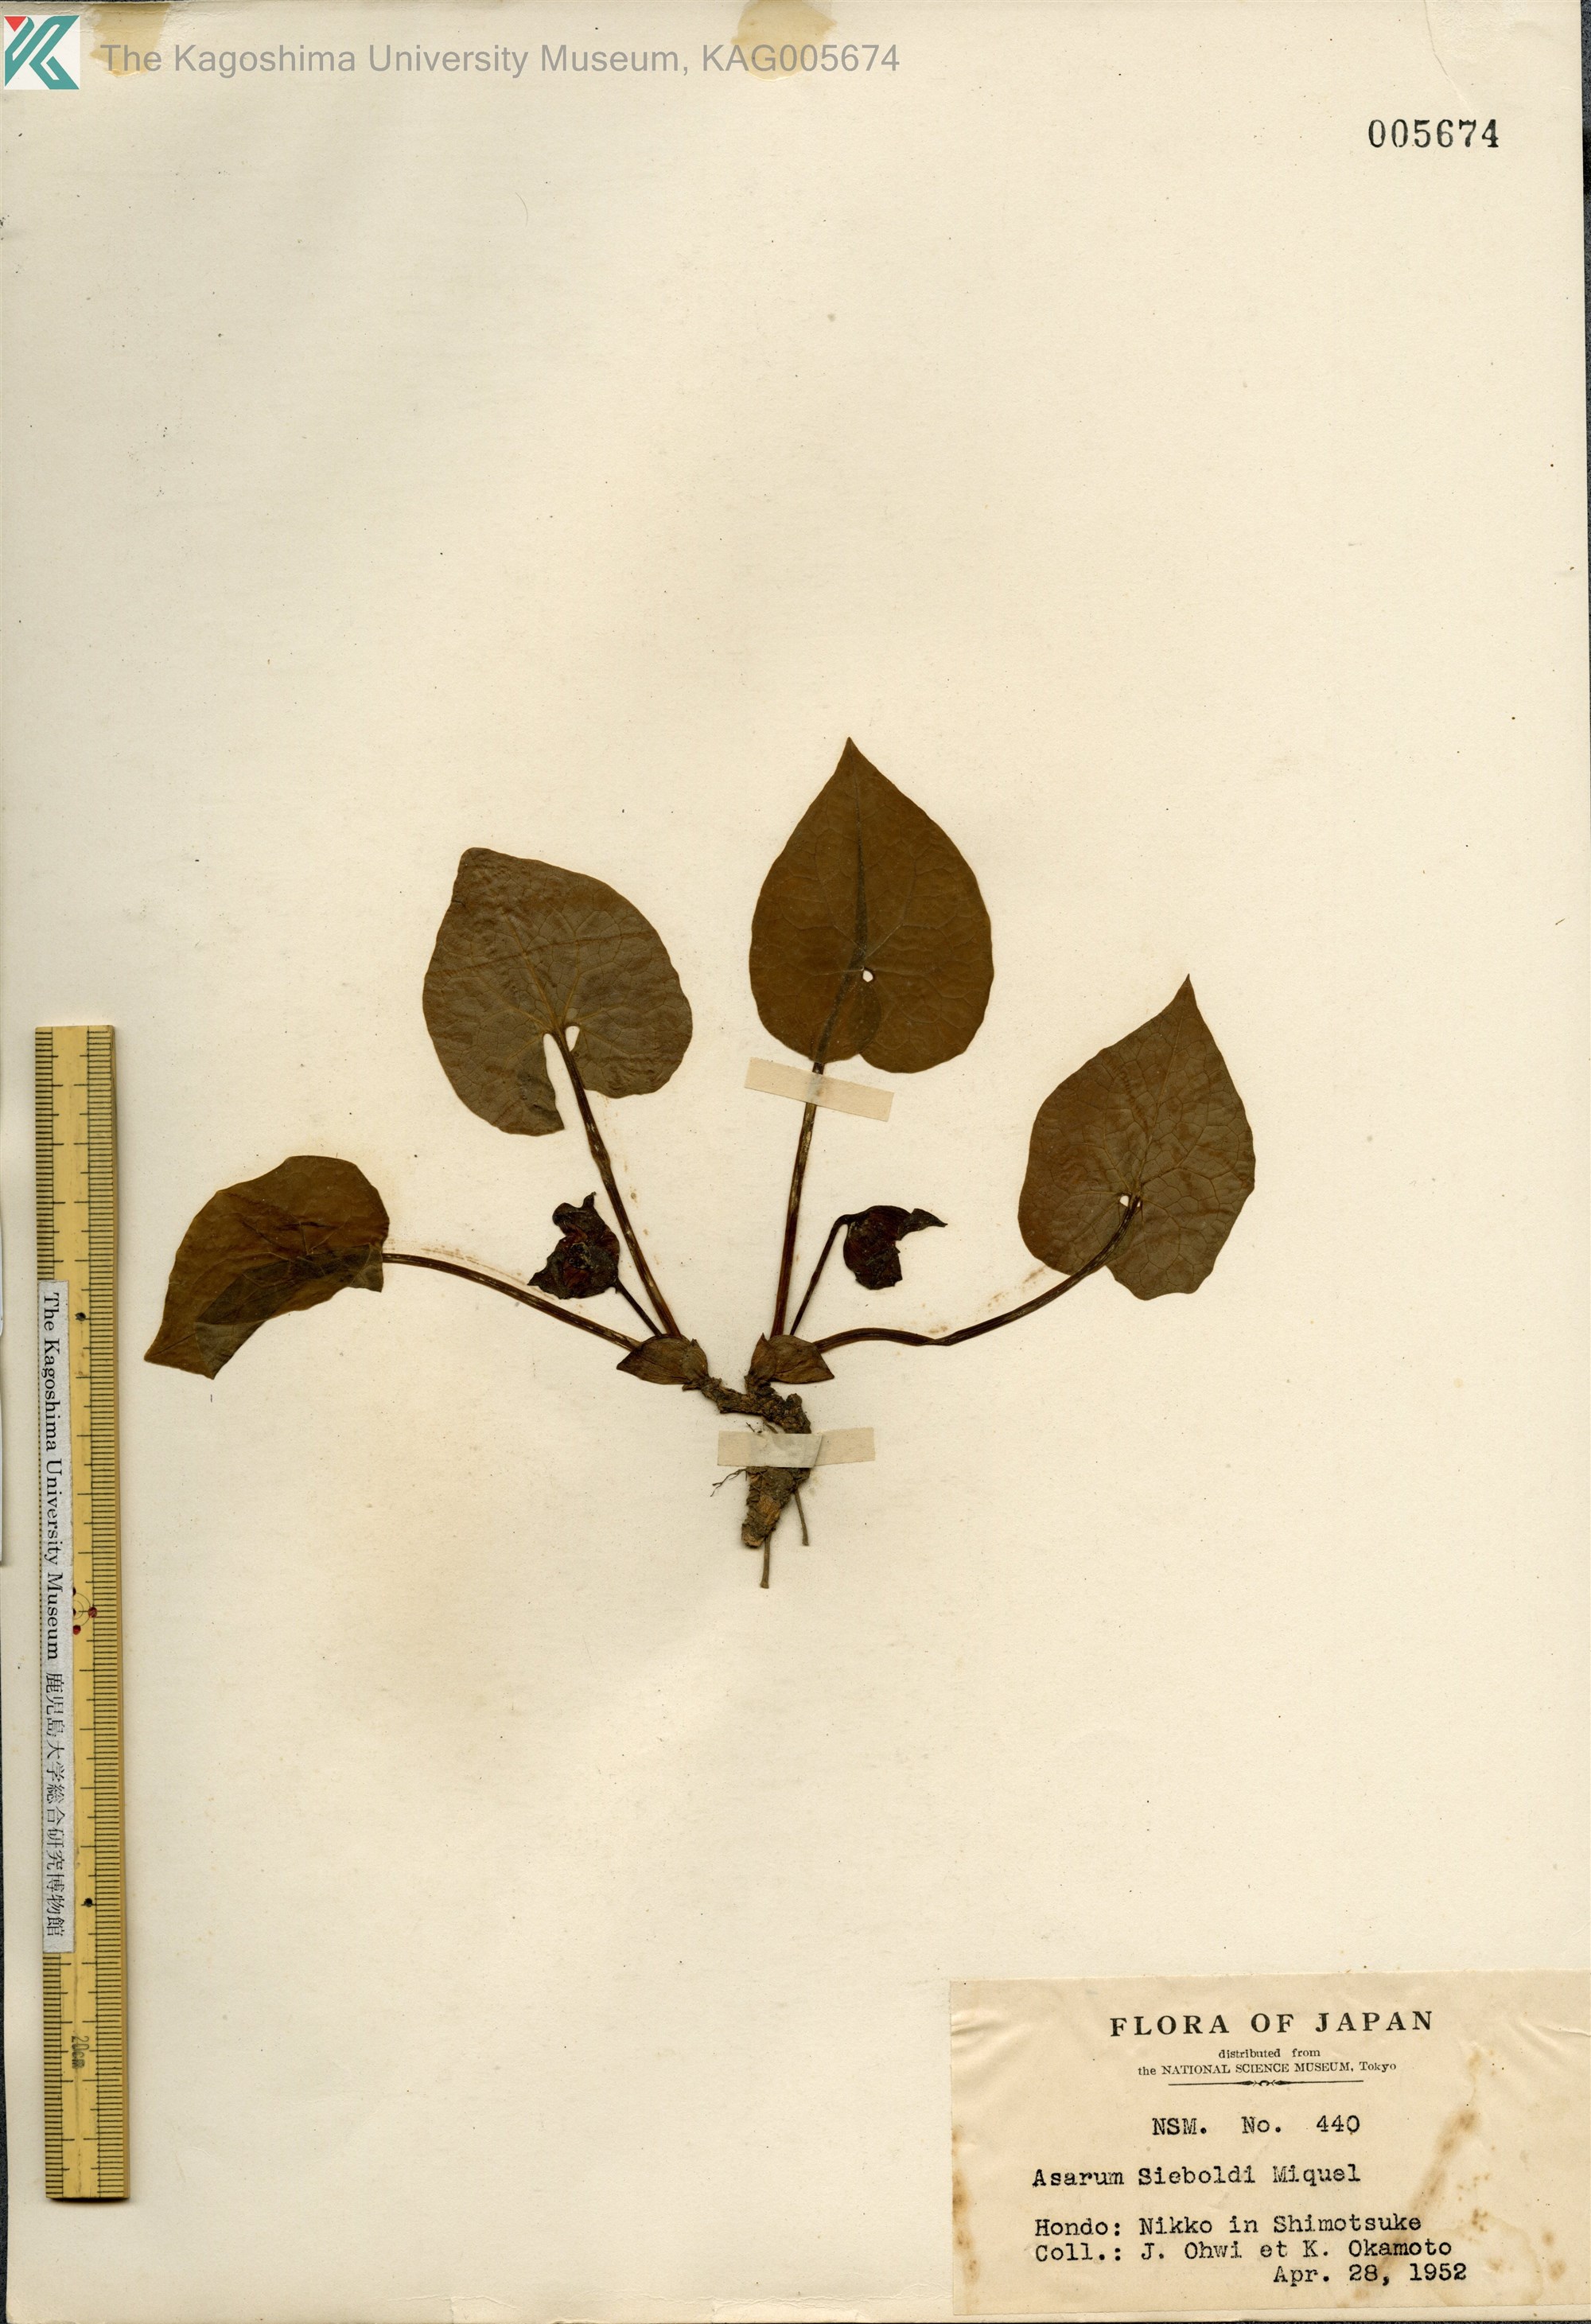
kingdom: Plantae
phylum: Tracheophyta
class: Magnoliopsida
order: Piperales
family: Aristolochiaceae
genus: Asarum
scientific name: Asarum sieboldii
